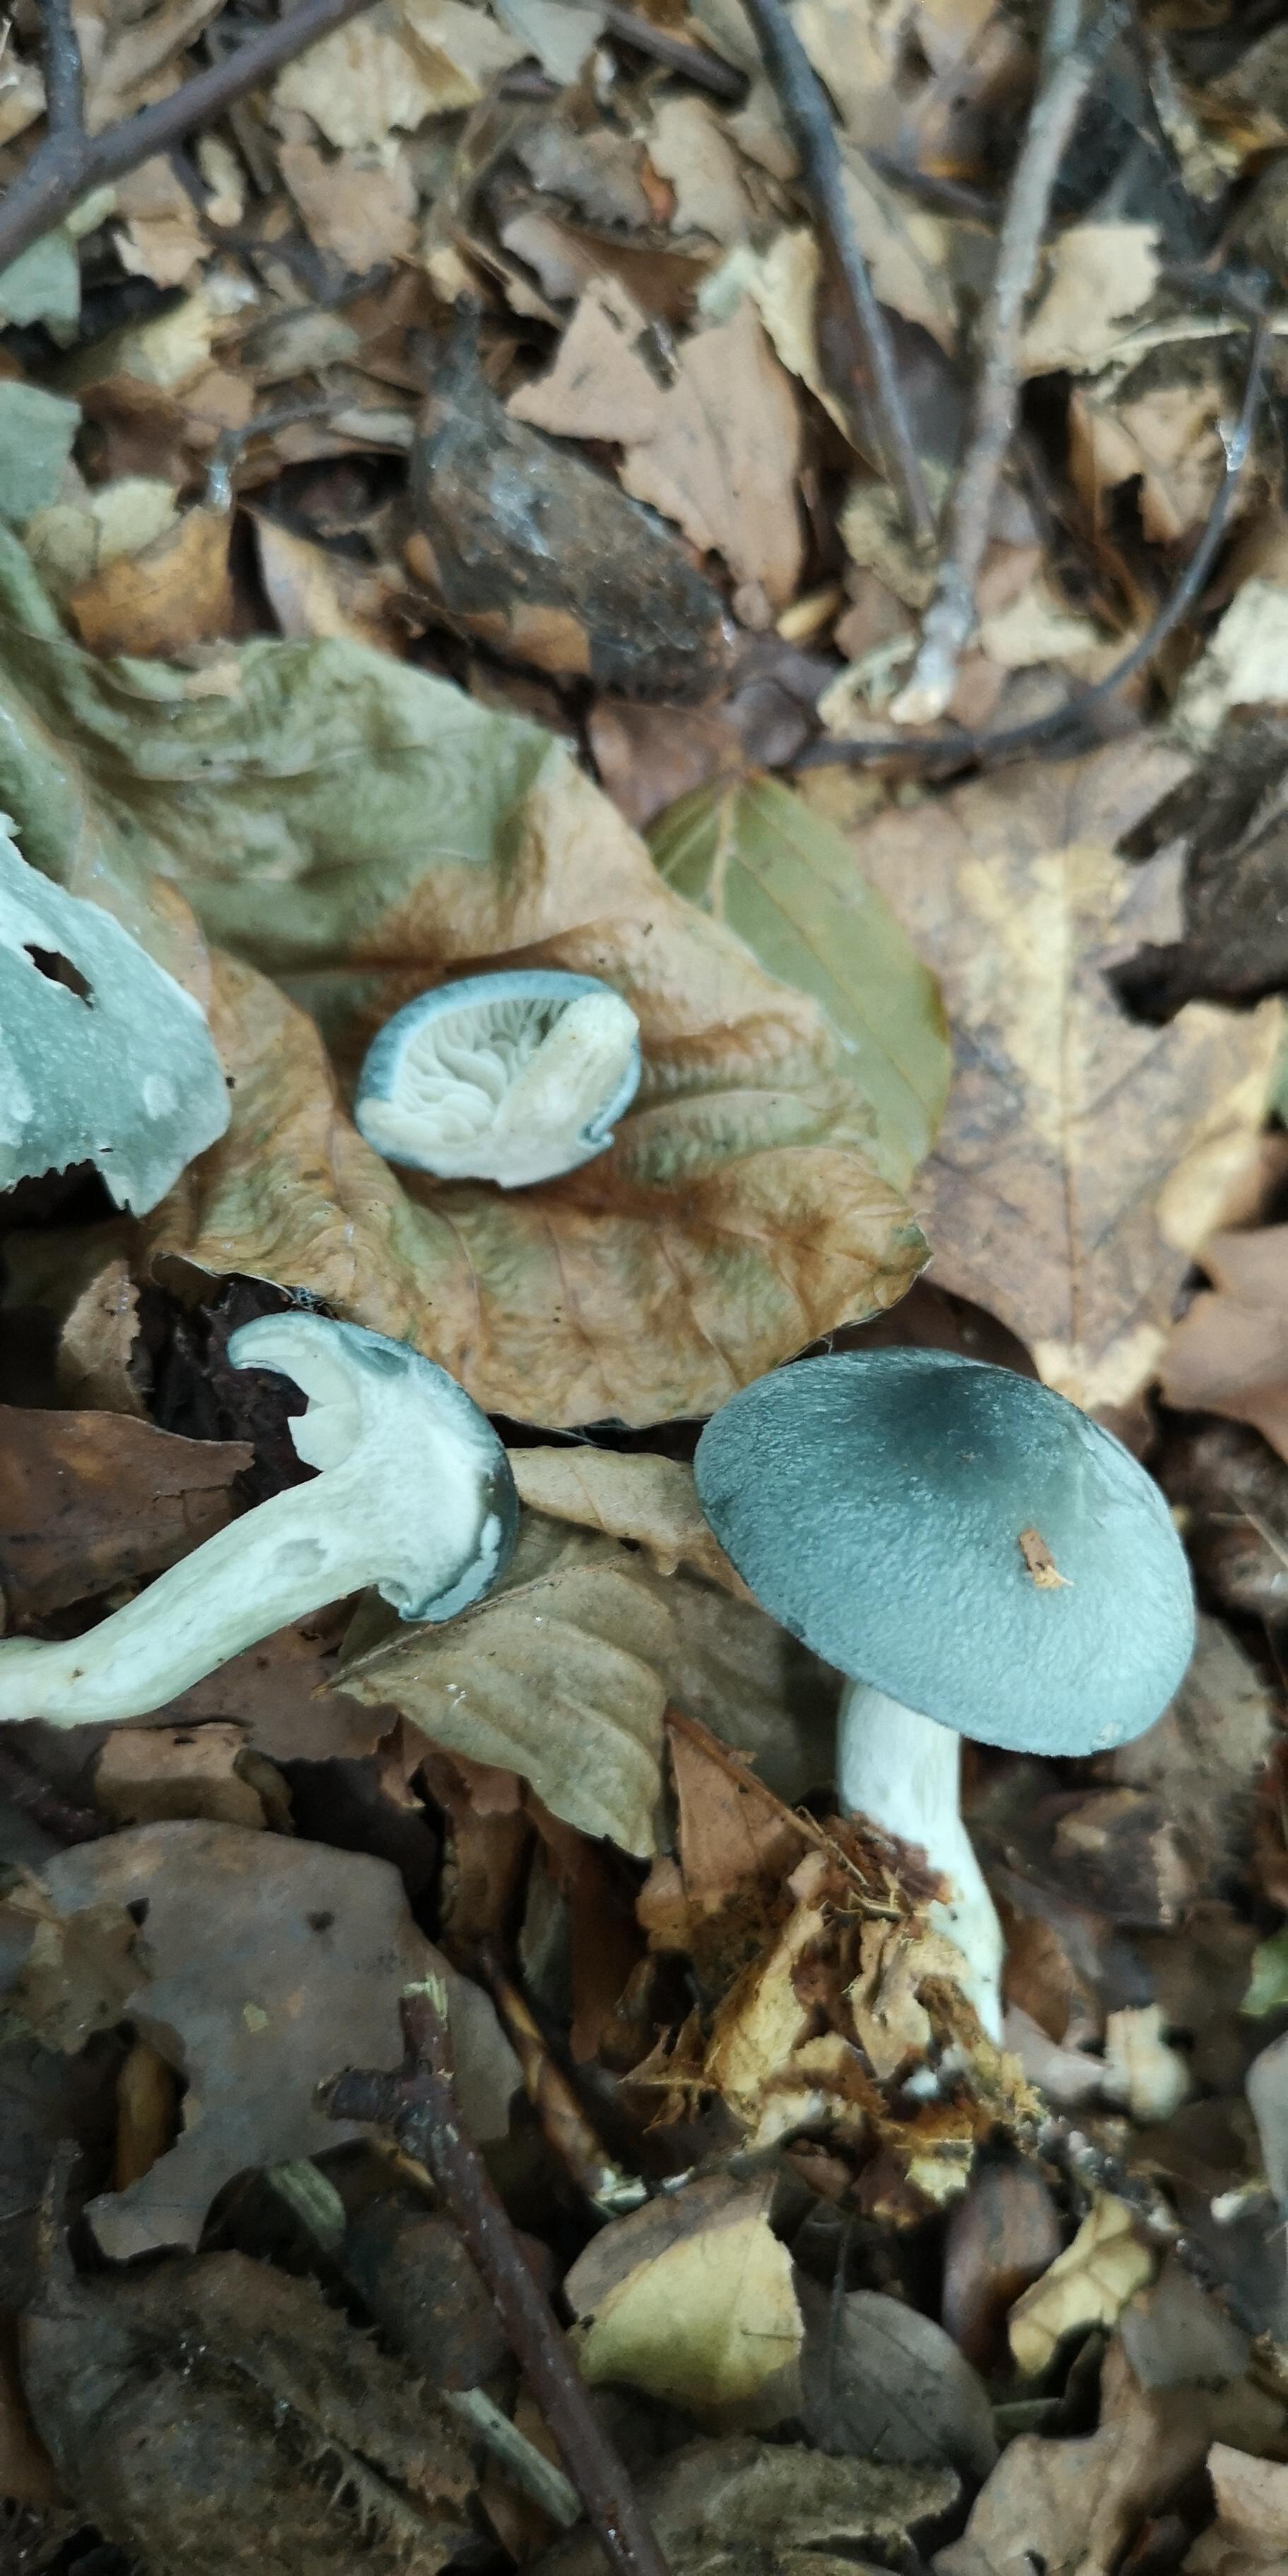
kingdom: Fungi
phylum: Basidiomycota
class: Agaricomycetes
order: Agaricales
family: Tricholomataceae
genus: Clitocybe
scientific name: Clitocybe odora
